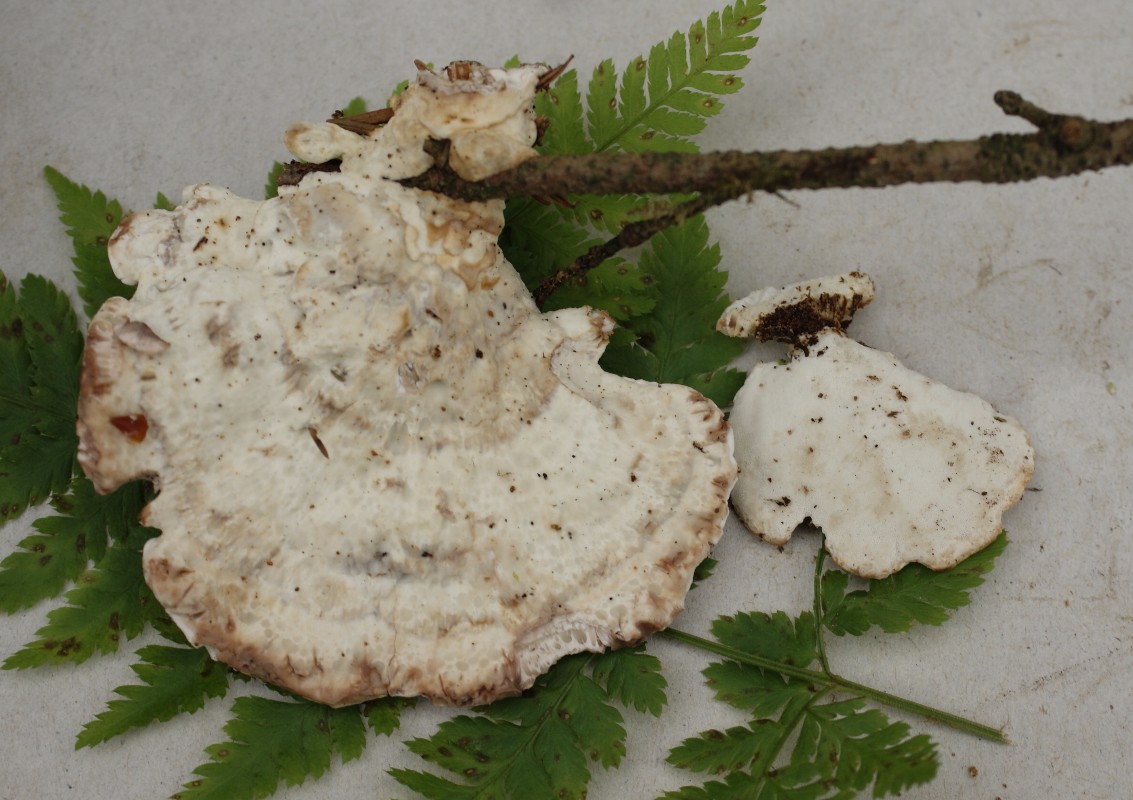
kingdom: Fungi
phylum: Basidiomycota
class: Agaricomycetes
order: Polyporales
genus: Calcipostia
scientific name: Calcipostia guttulata
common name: dråbe-kødporesvamp
